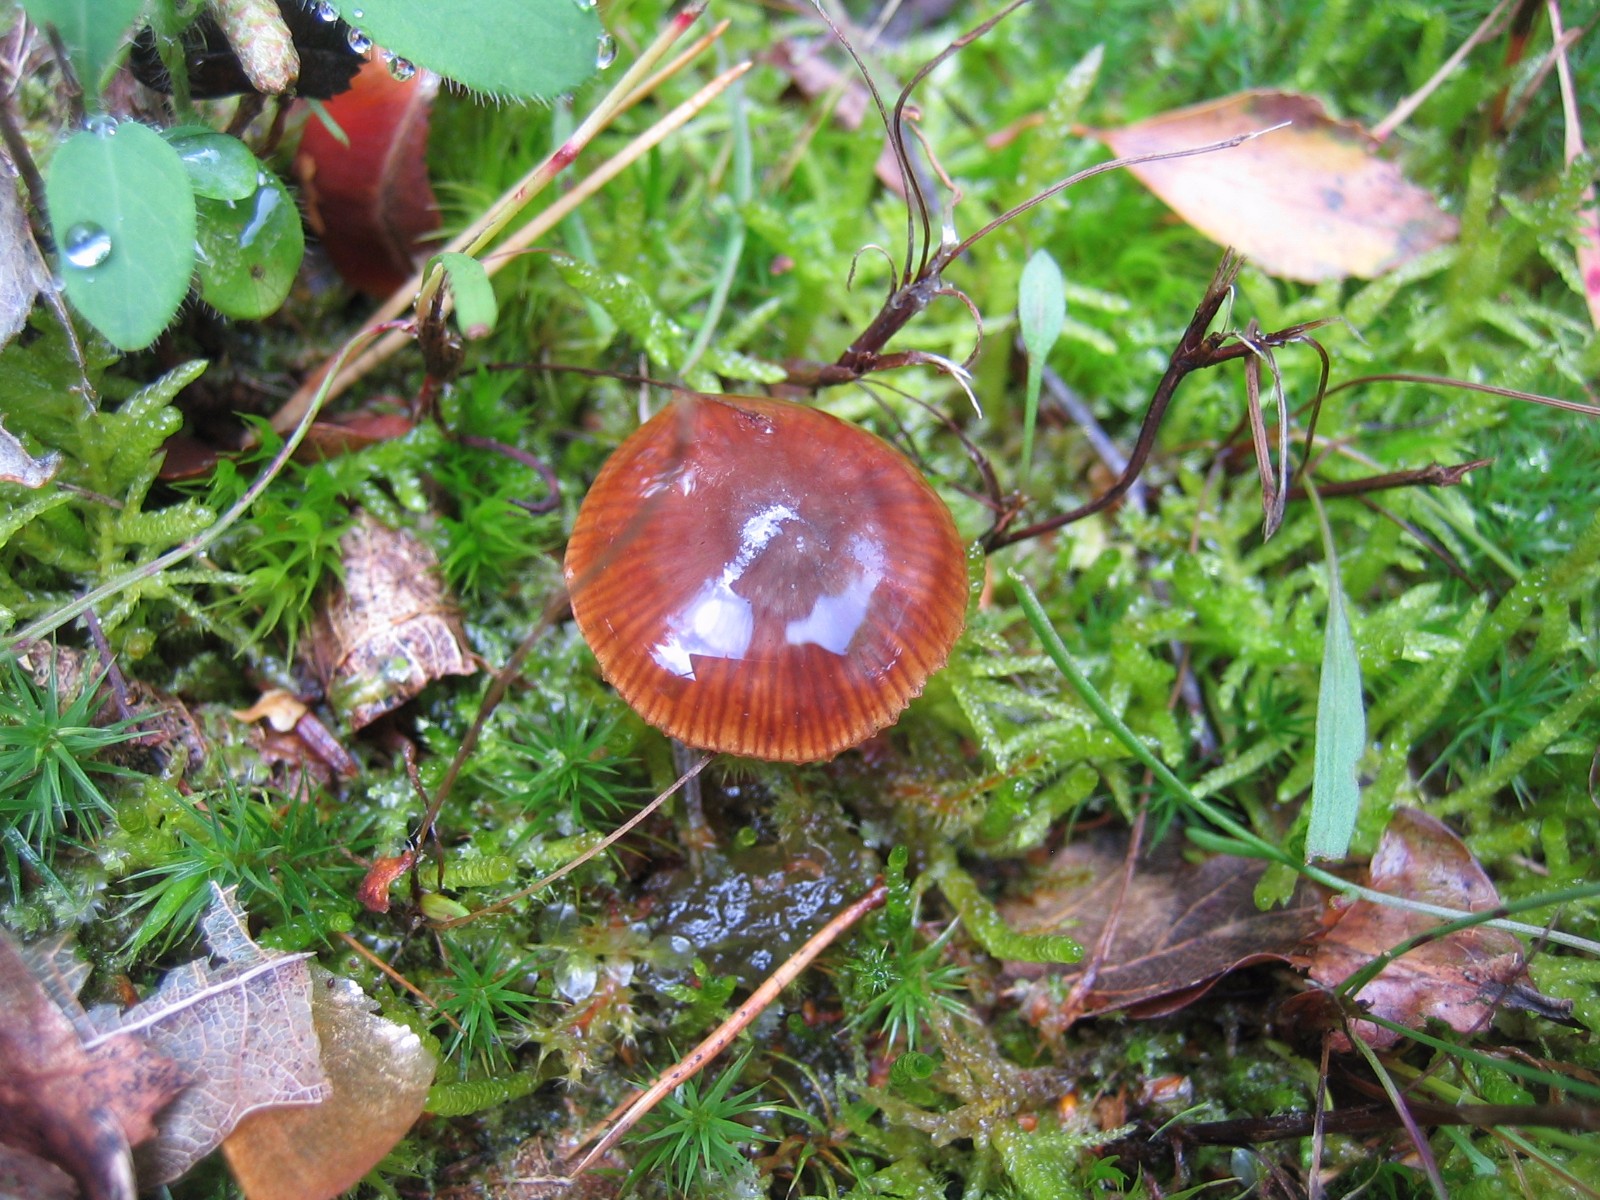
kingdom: Fungi
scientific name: Fungi
